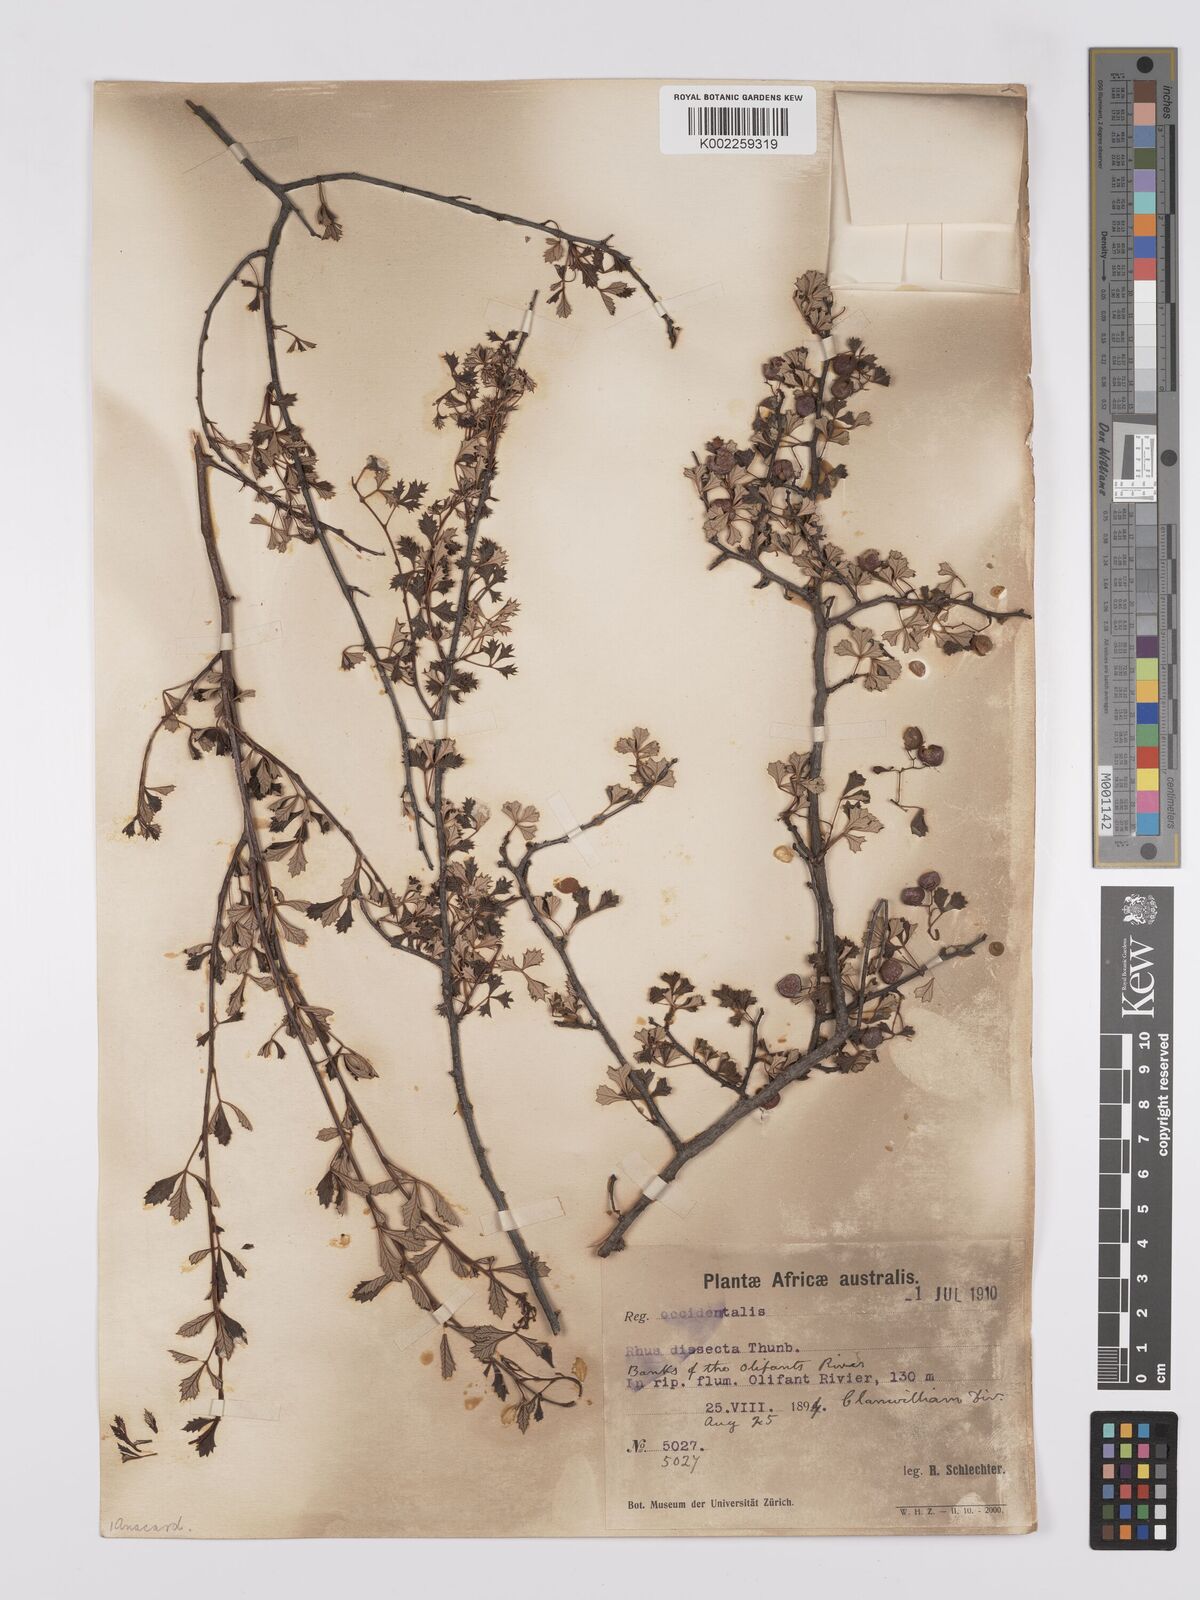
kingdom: Plantae
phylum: Tracheophyta
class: Magnoliopsida
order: Sapindales
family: Anacardiaceae
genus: Searsia
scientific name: Searsia dissecta
